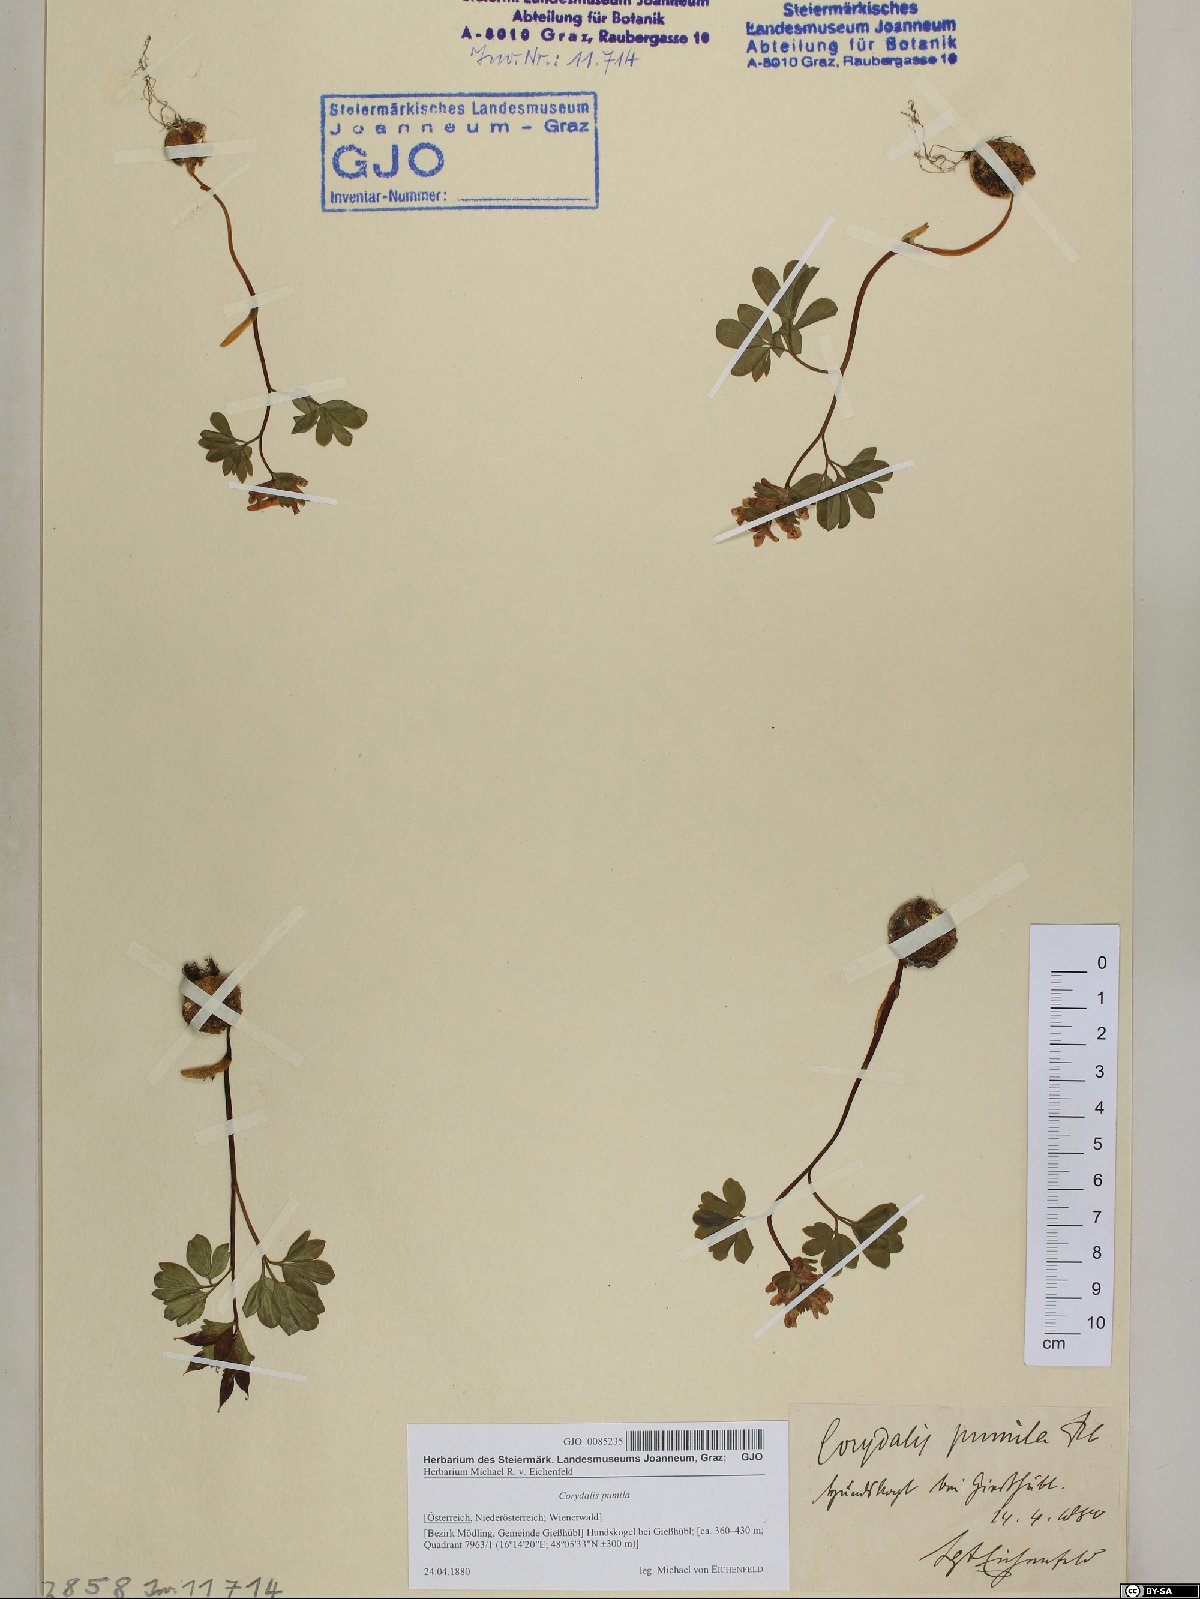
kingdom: Plantae
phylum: Tracheophyta
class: Magnoliopsida
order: Ranunculales
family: Papaveraceae
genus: Corydalis
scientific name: Corydalis pumila
